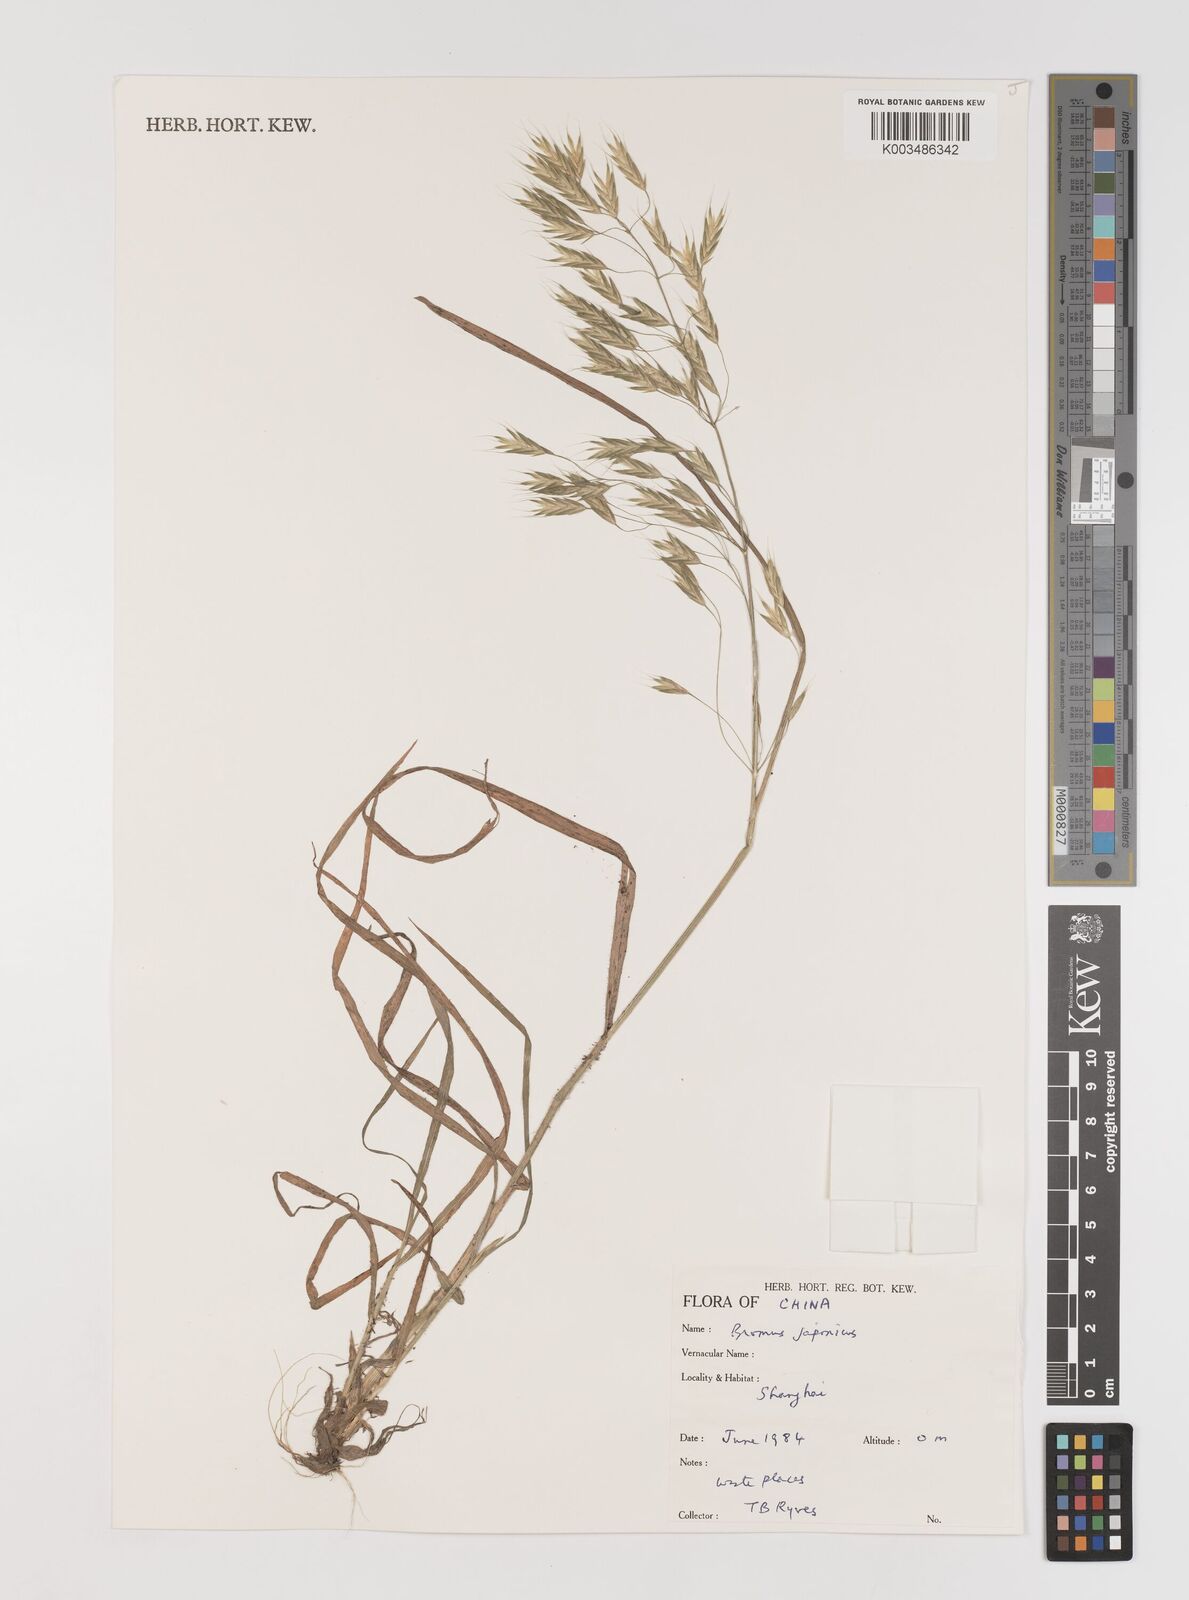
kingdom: Plantae
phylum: Tracheophyta
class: Liliopsida
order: Poales
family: Poaceae
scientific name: Poaceae
